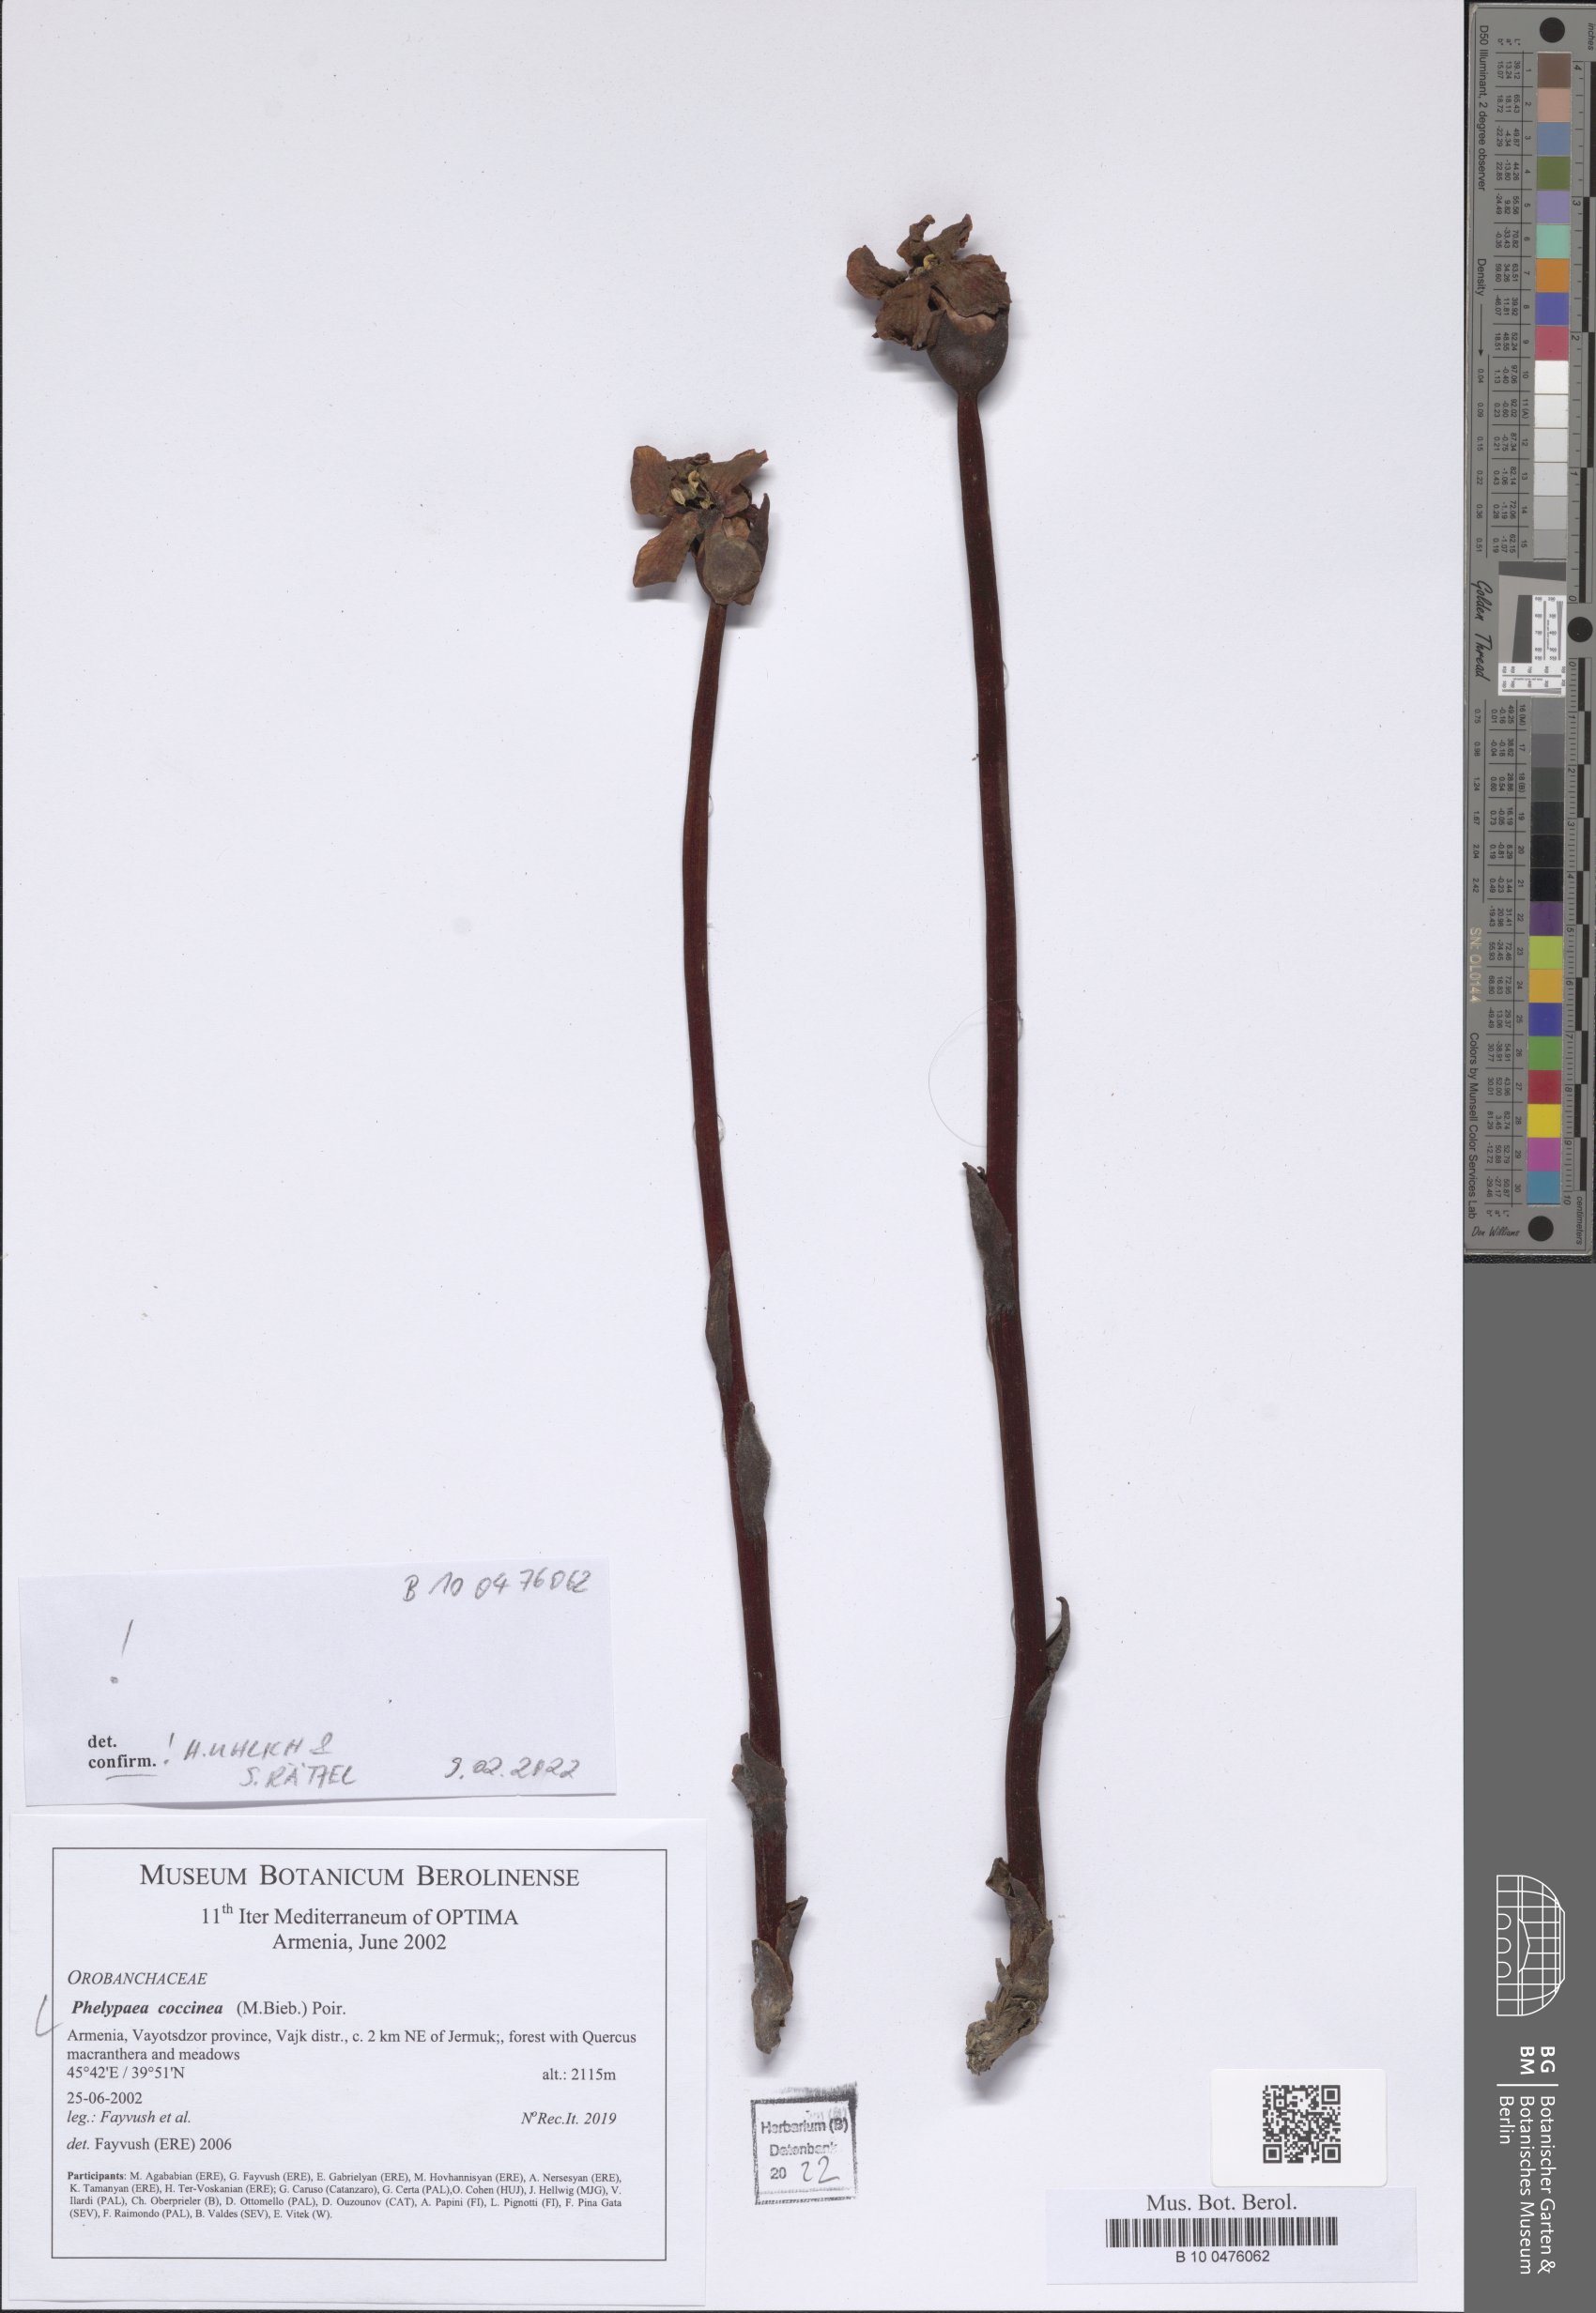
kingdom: Plantae
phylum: Tracheophyta
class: Magnoliopsida
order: Lamiales
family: Orobanchaceae
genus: Diphelypaea
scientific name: Diphelypaea coccinea
